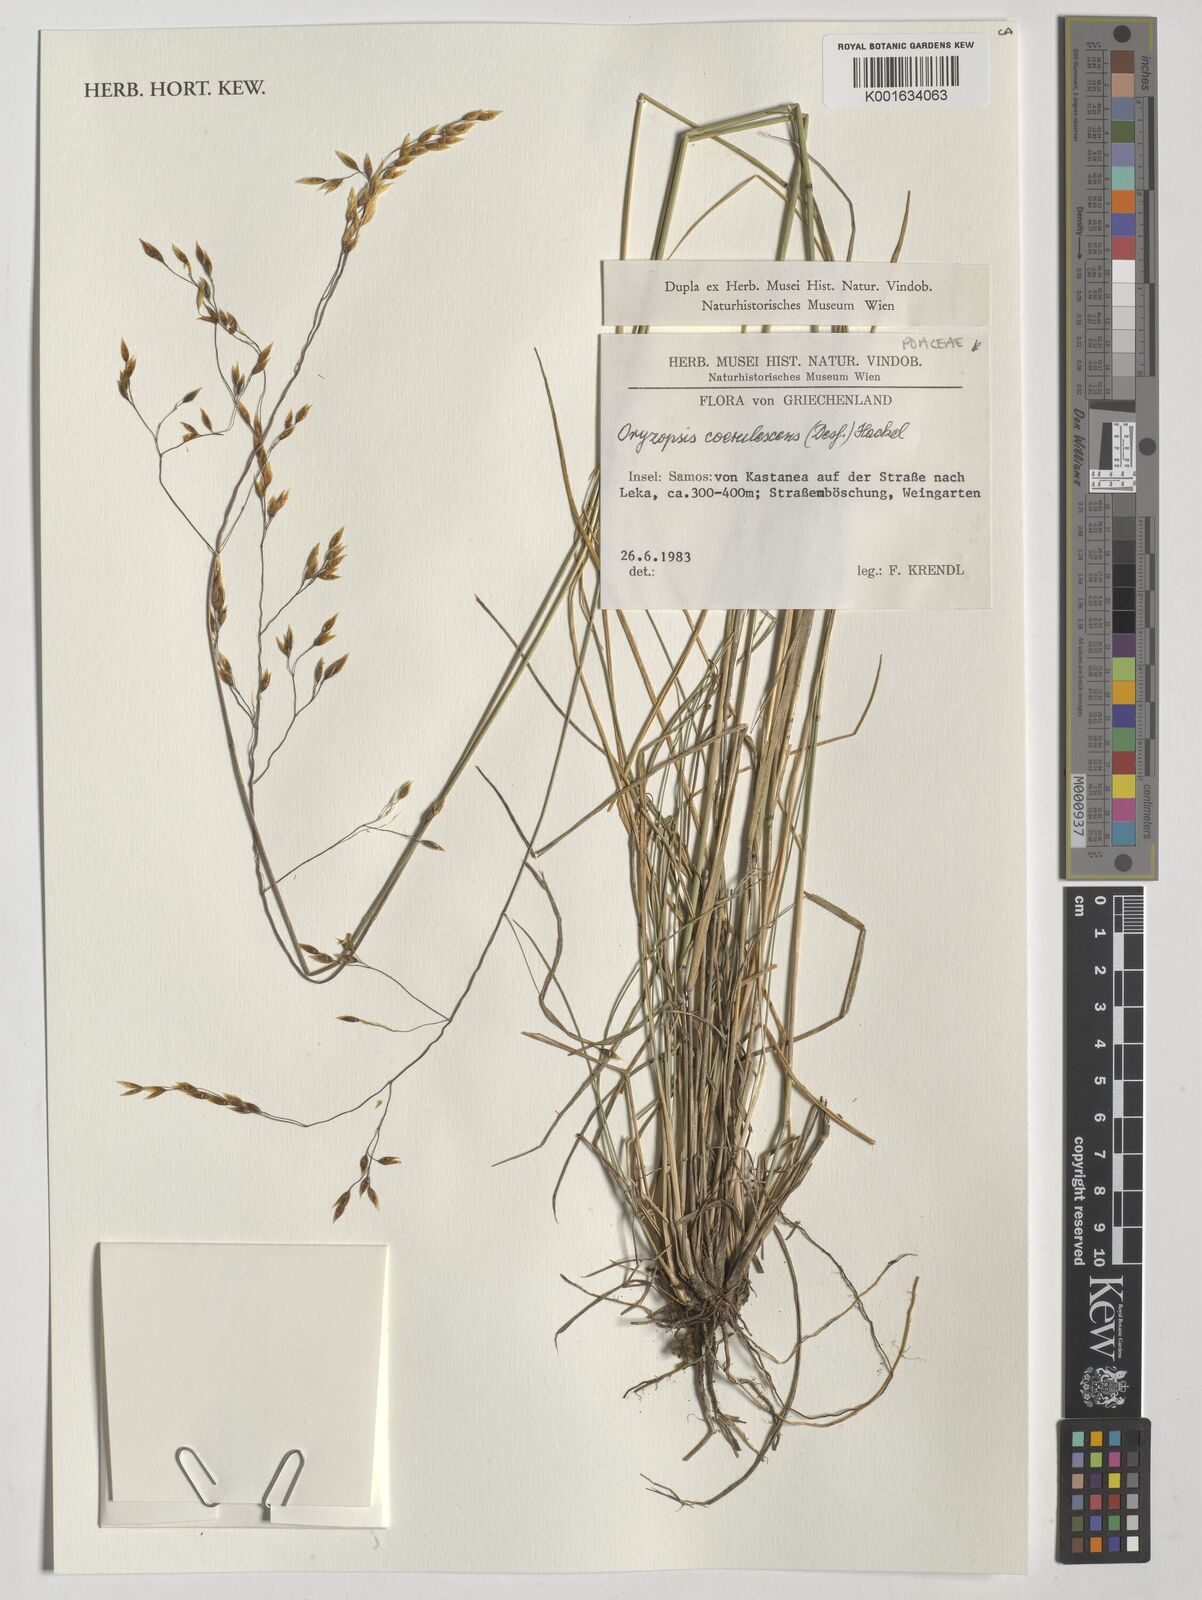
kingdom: Plantae
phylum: Tracheophyta
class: Liliopsida
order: Poales
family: Poaceae
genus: Piptatherum
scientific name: Piptatherum coerulescens
